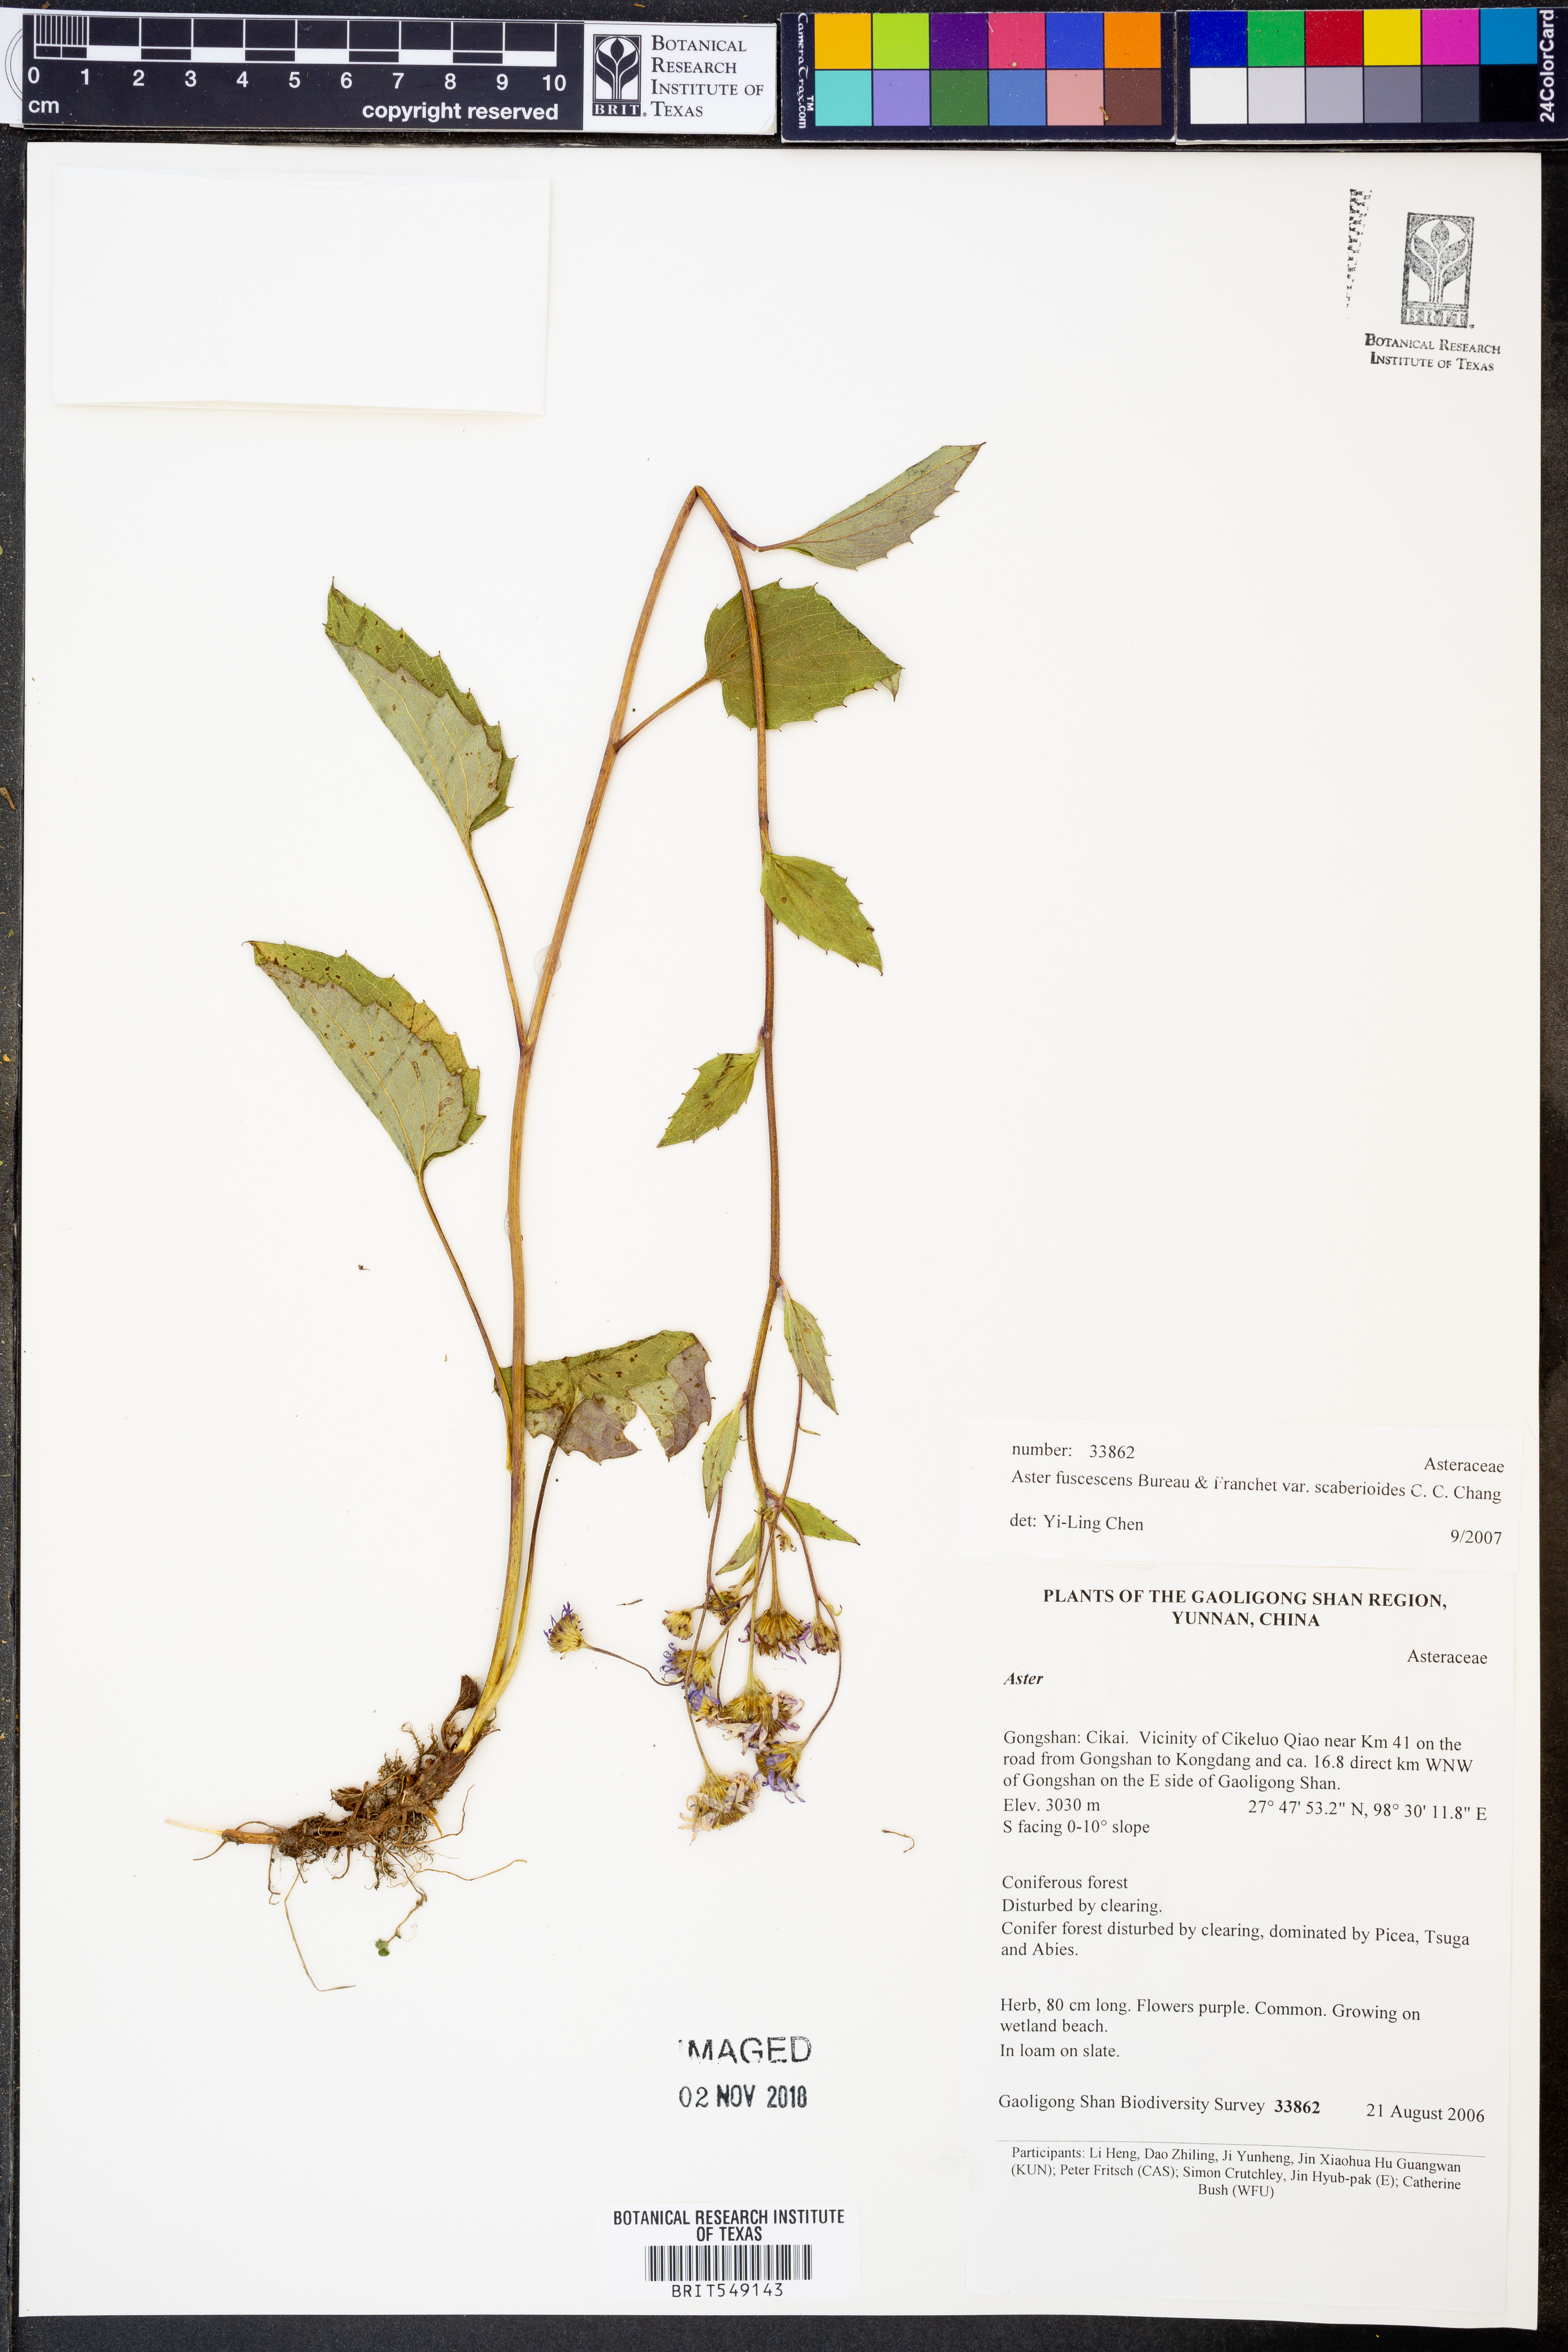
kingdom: Plantae
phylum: Tracheophyta
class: Magnoliopsida
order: Asterales
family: Asteraceae
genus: Griersonia
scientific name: Griersonia fuscescens
